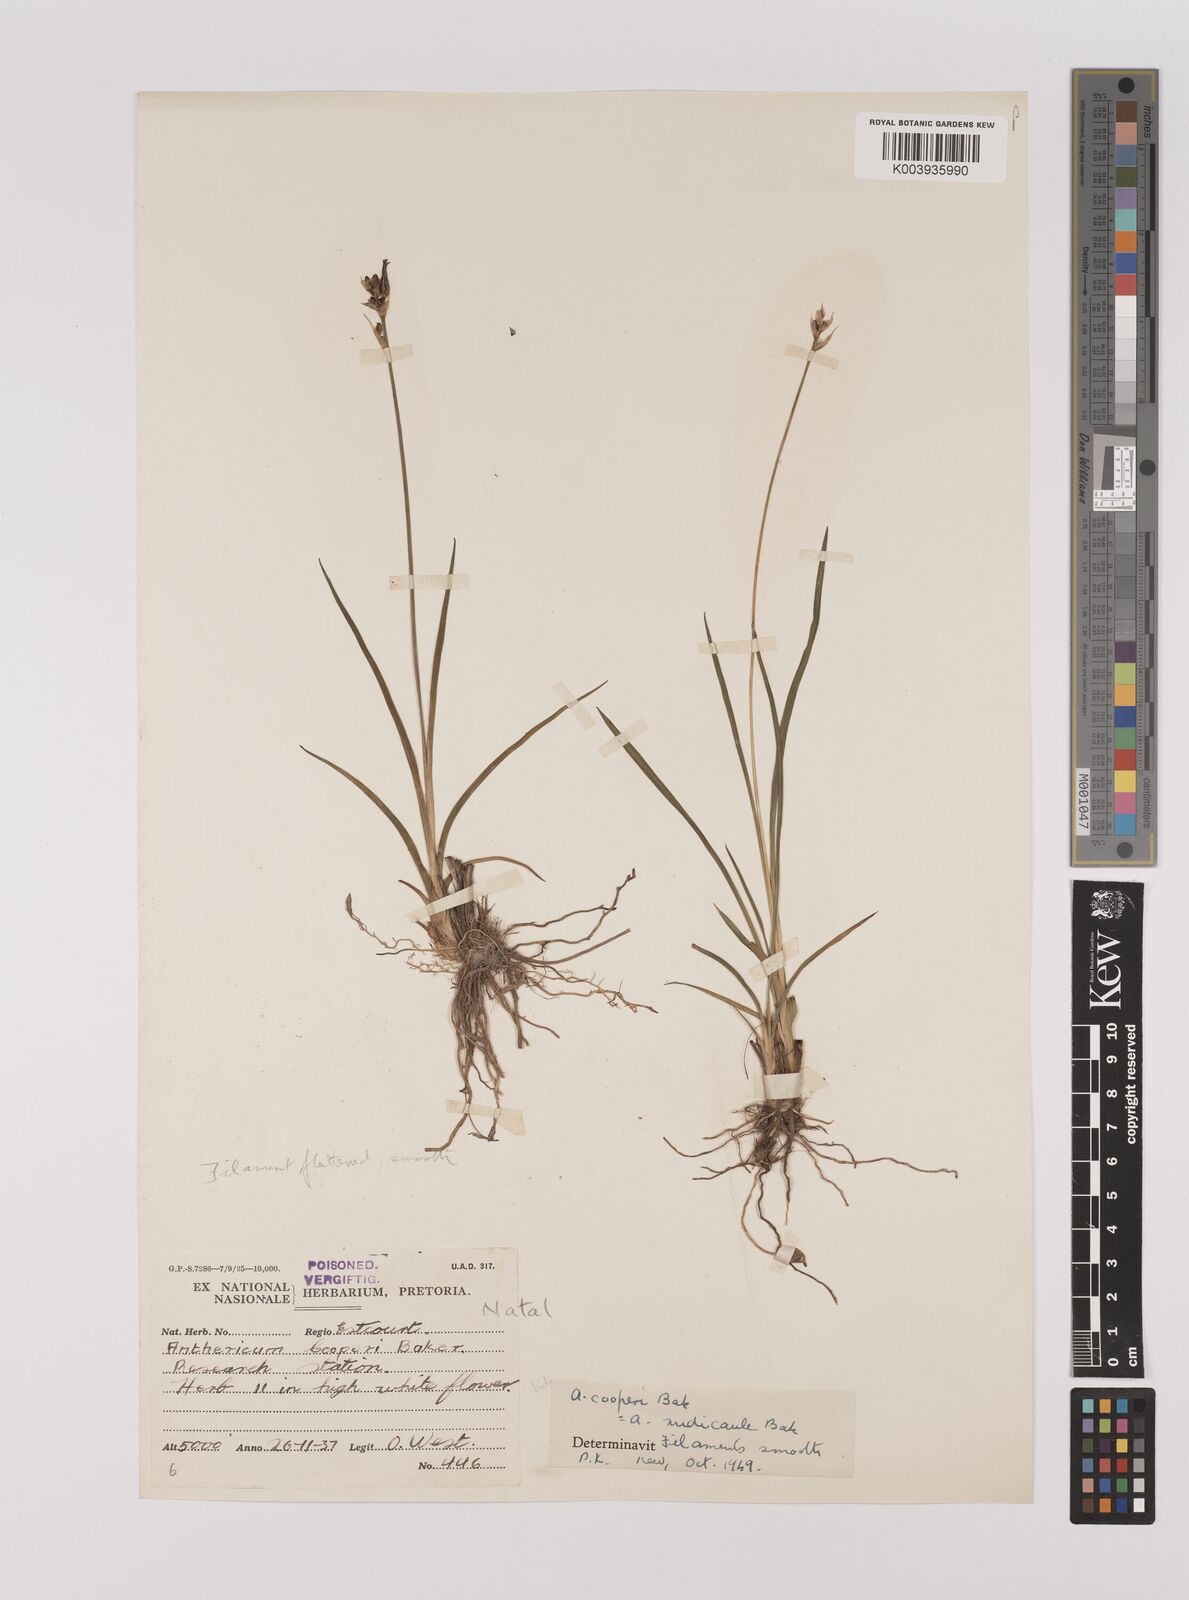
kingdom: Plantae
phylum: Tracheophyta
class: Liliopsida
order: Asparagales
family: Asparagaceae
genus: Chlorophytum
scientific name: Chlorophytum cooperi
